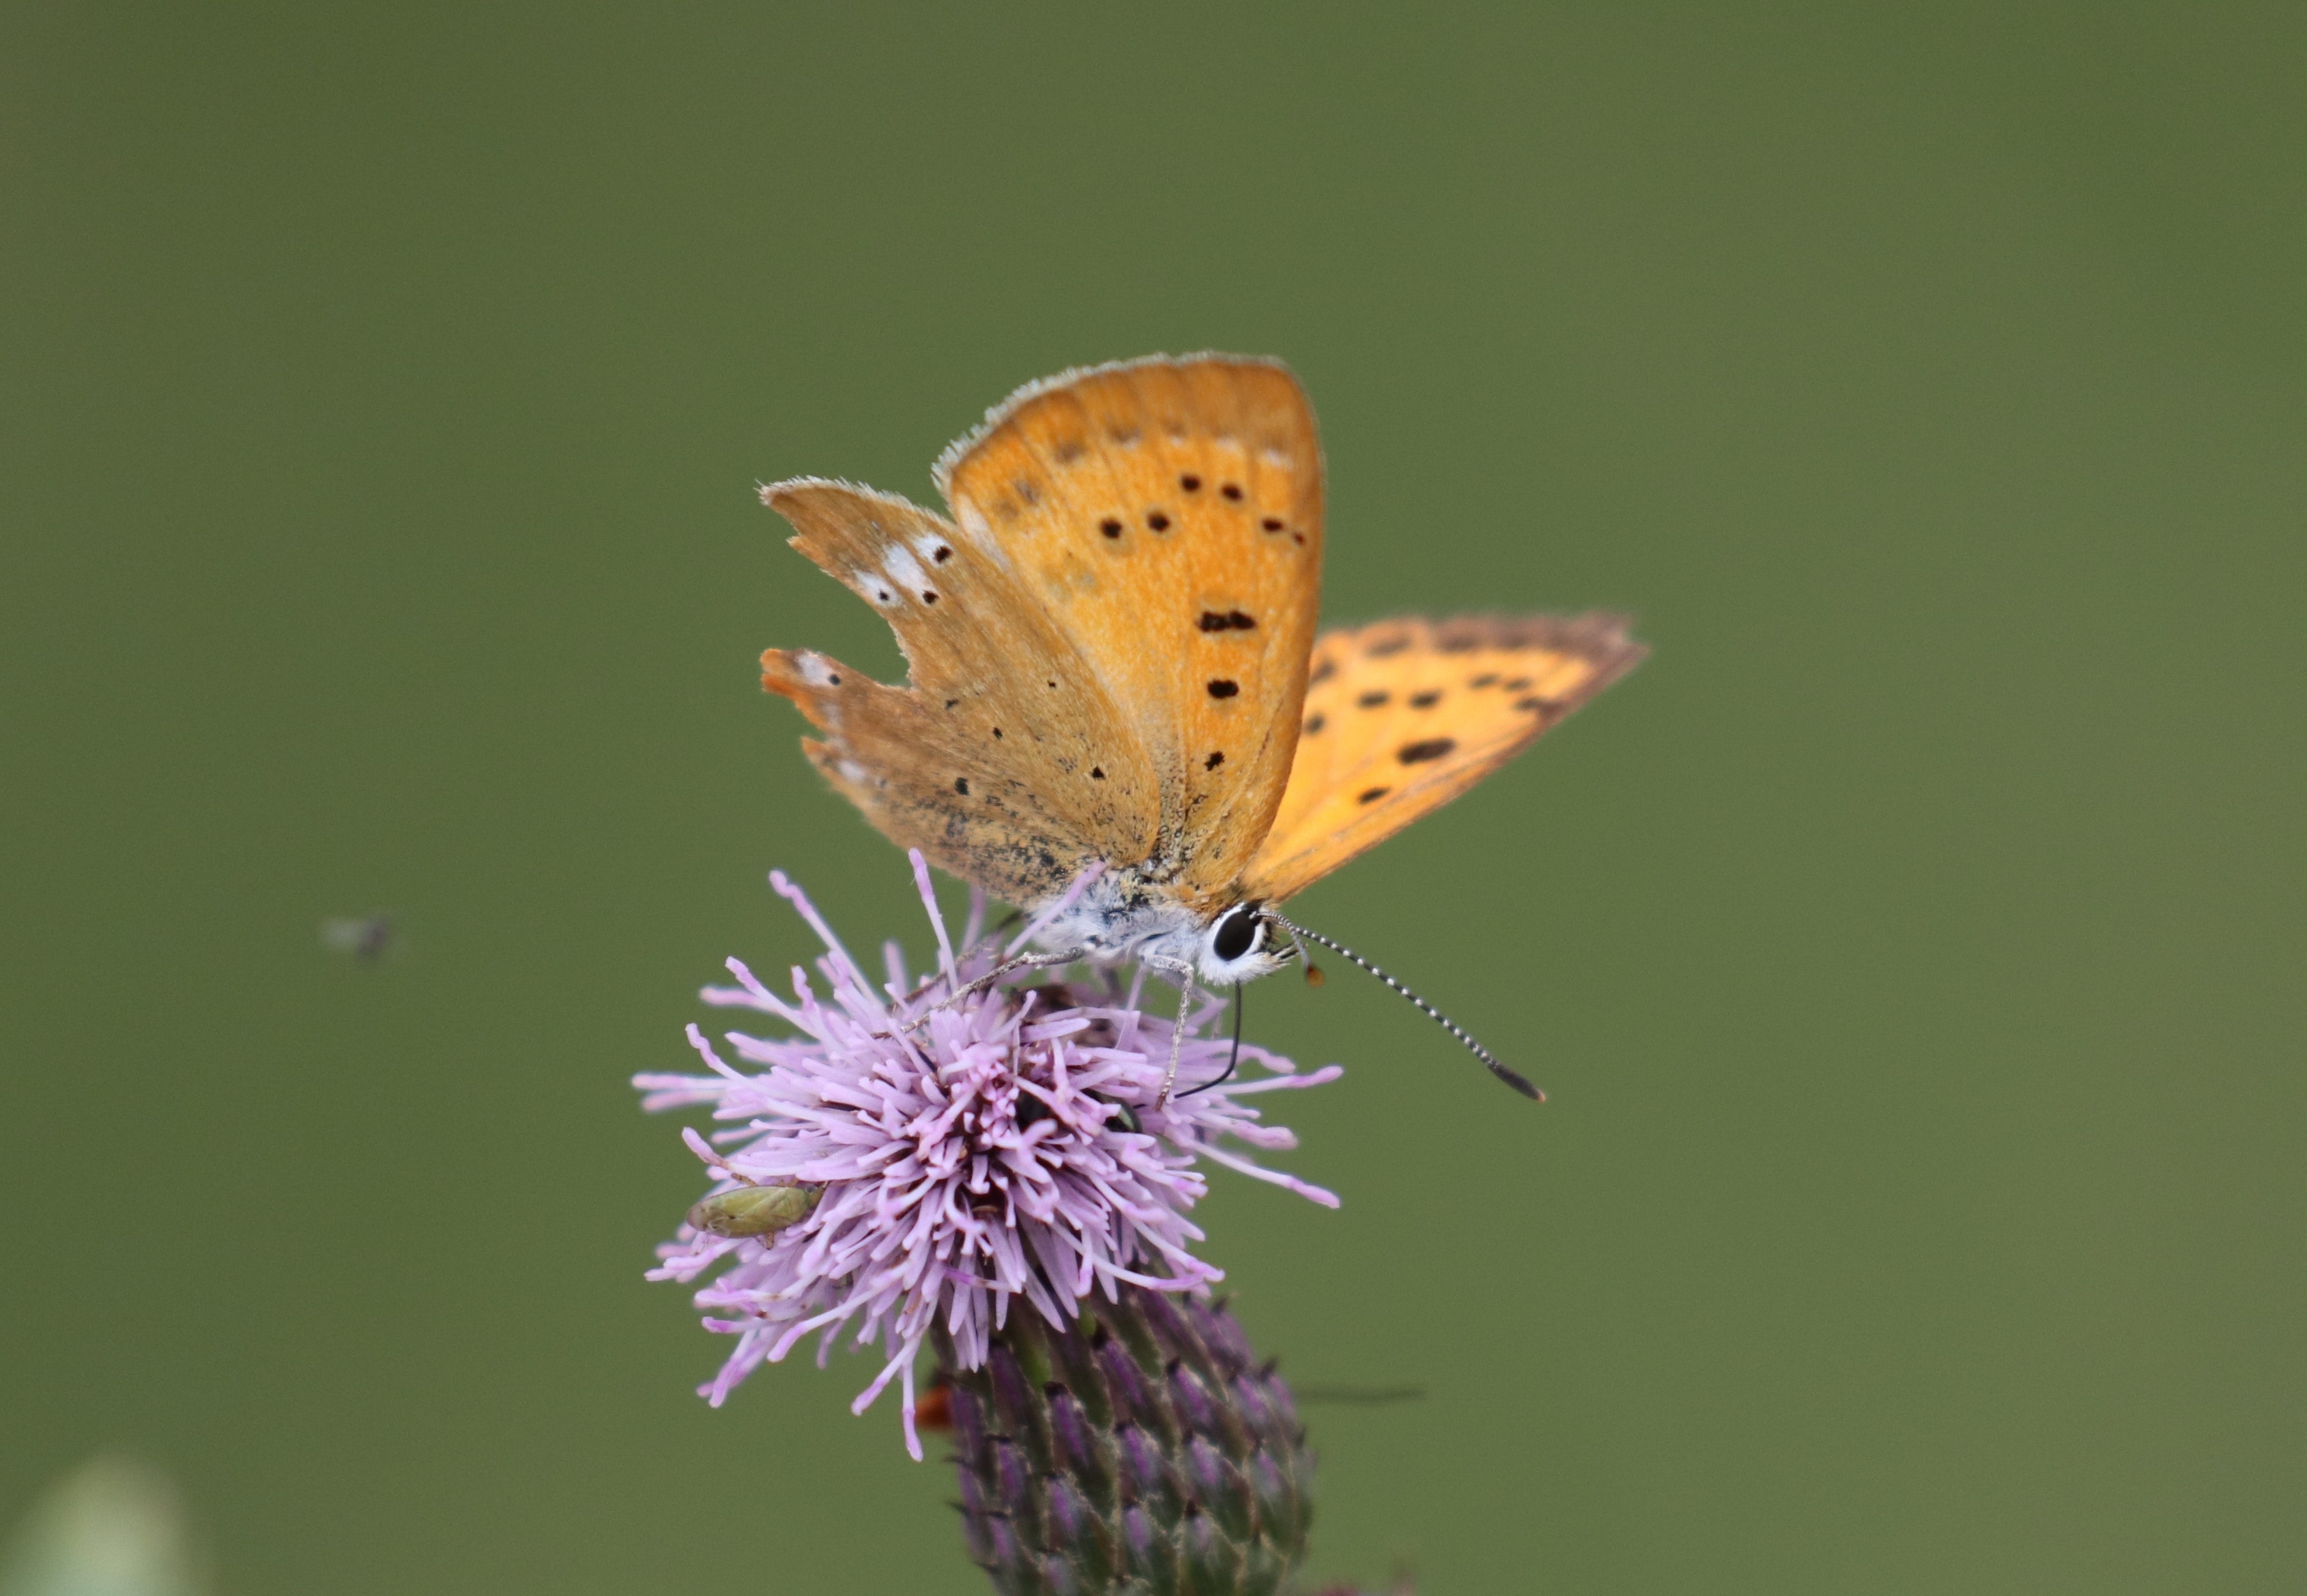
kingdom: Animalia
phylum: Arthropoda
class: Insecta
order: Lepidoptera
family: Lycaenidae
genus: Lycaena
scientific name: Lycaena virgaureae
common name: Dukatsommerfugl
